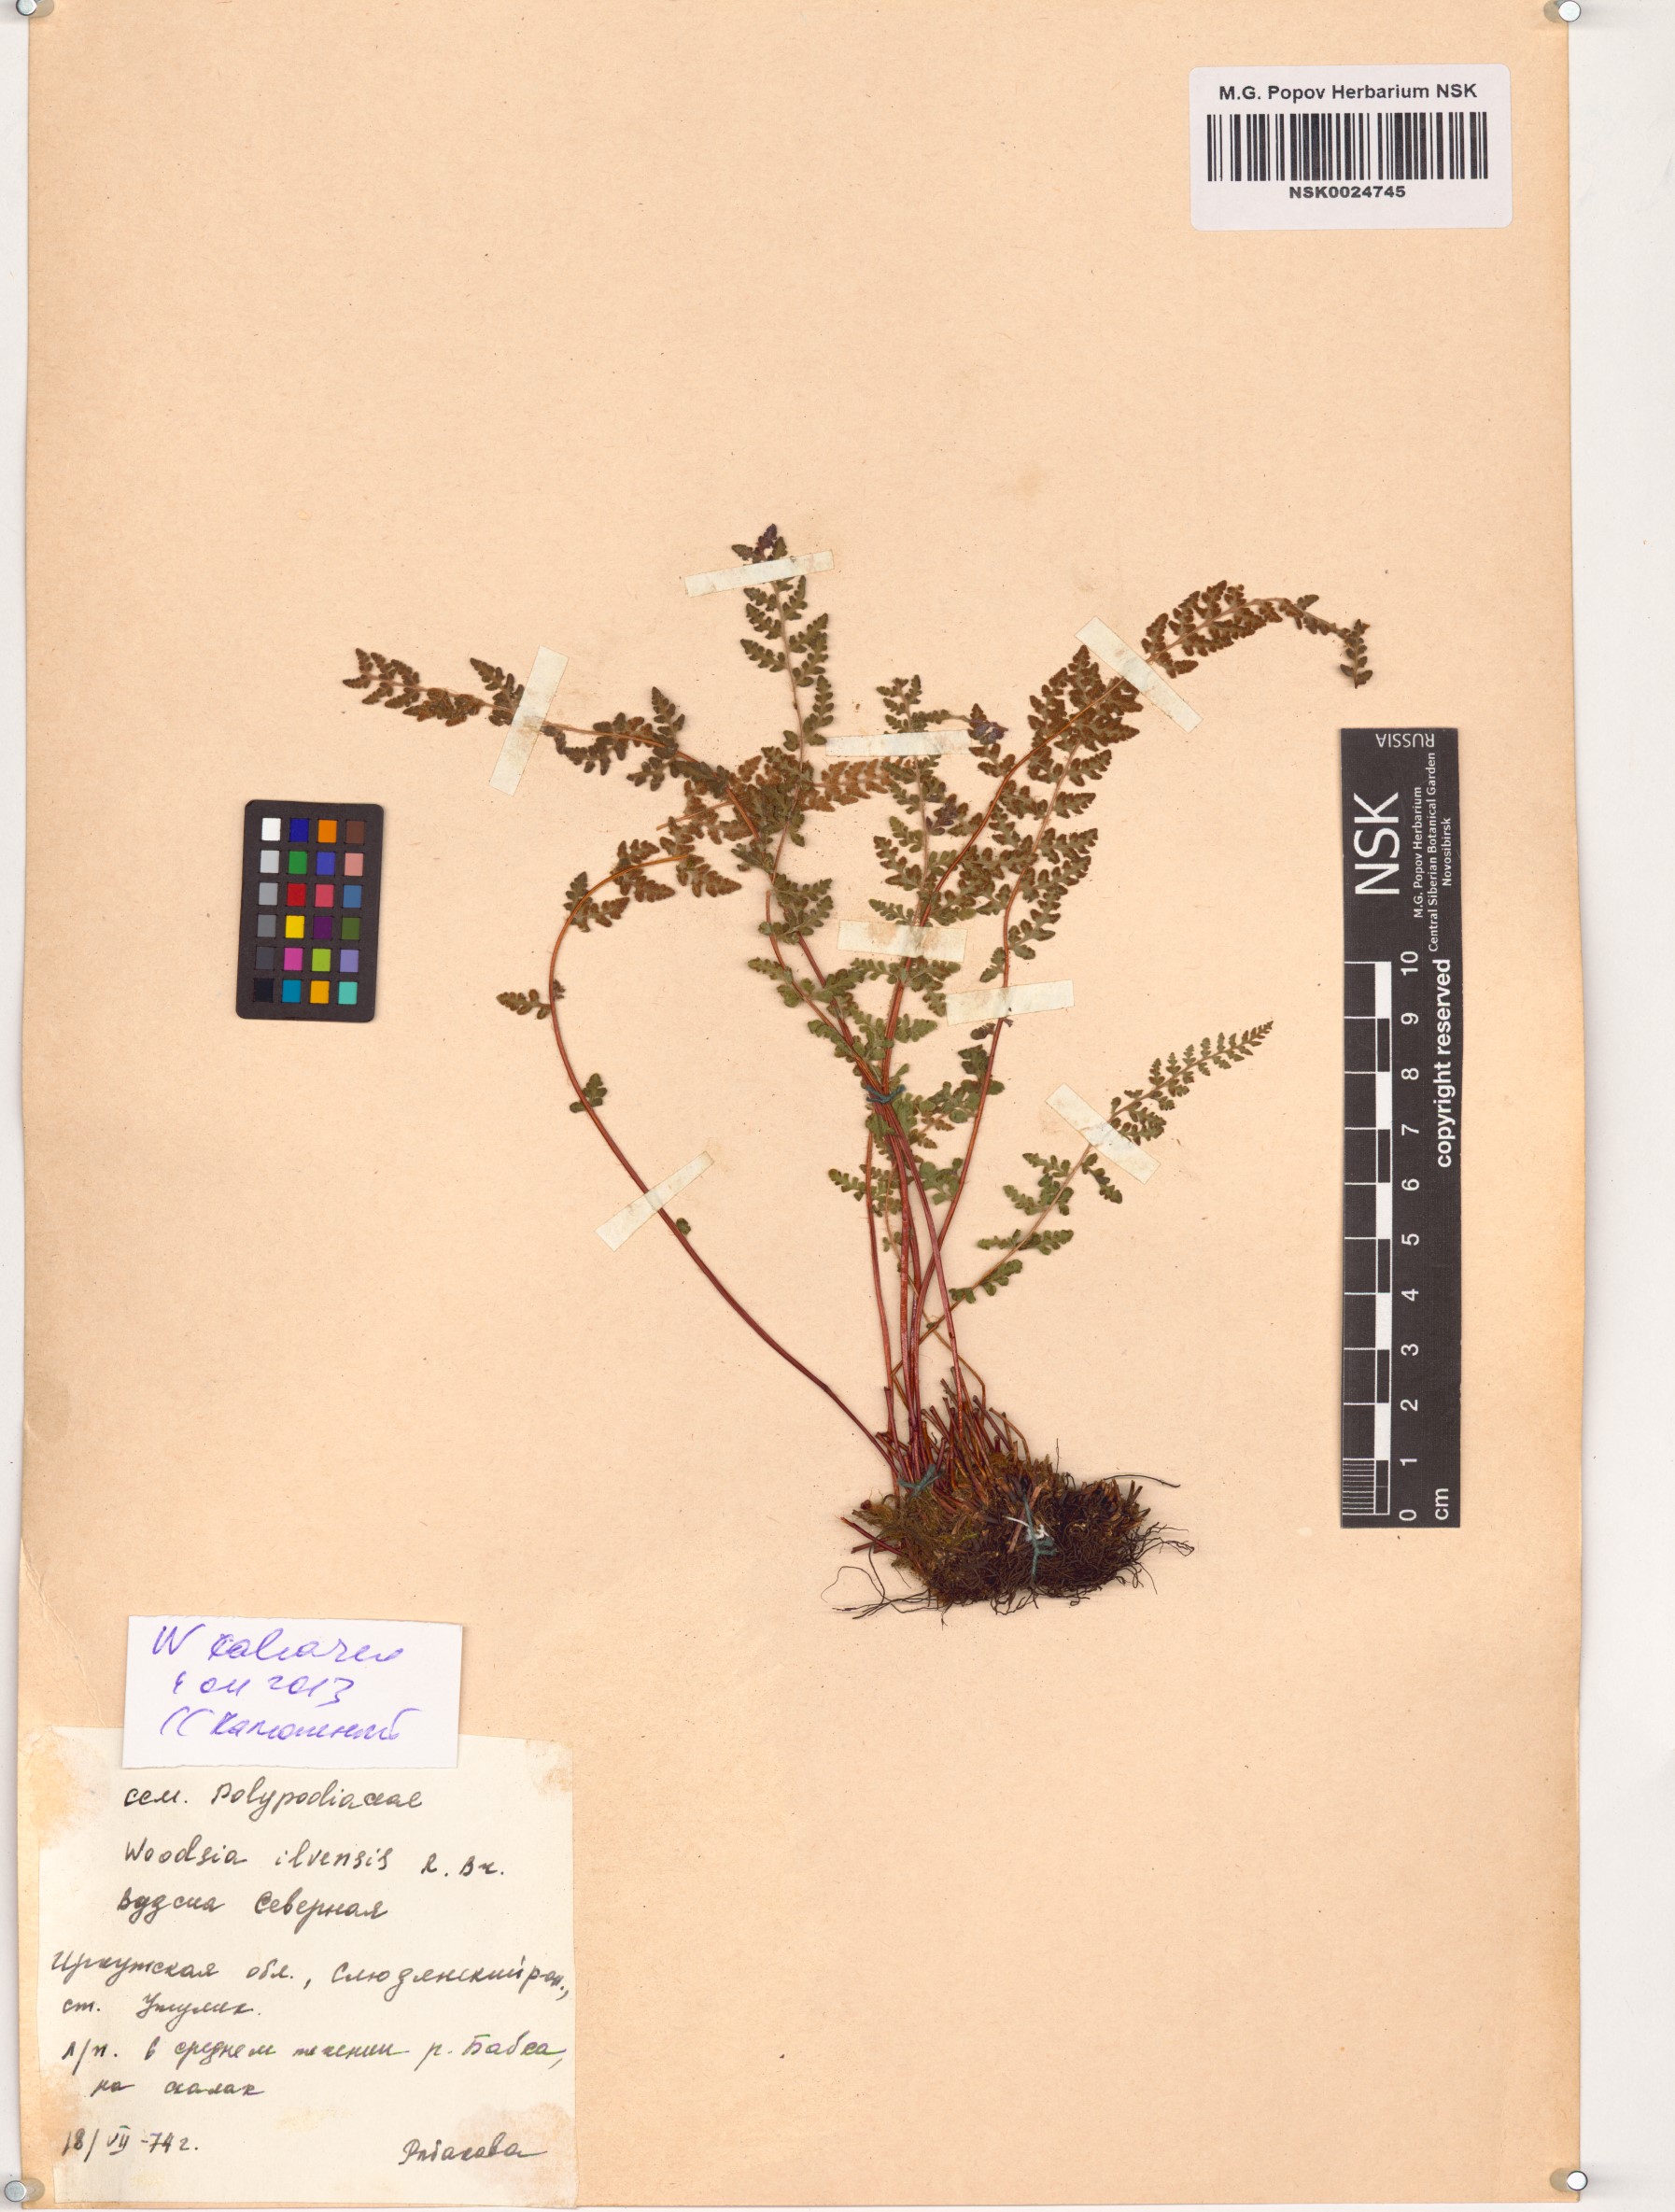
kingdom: Plantae
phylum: Tracheophyta
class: Polypodiopsida
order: Polypodiales
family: Woodsiaceae
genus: Woodsia
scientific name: Woodsia calcarea
